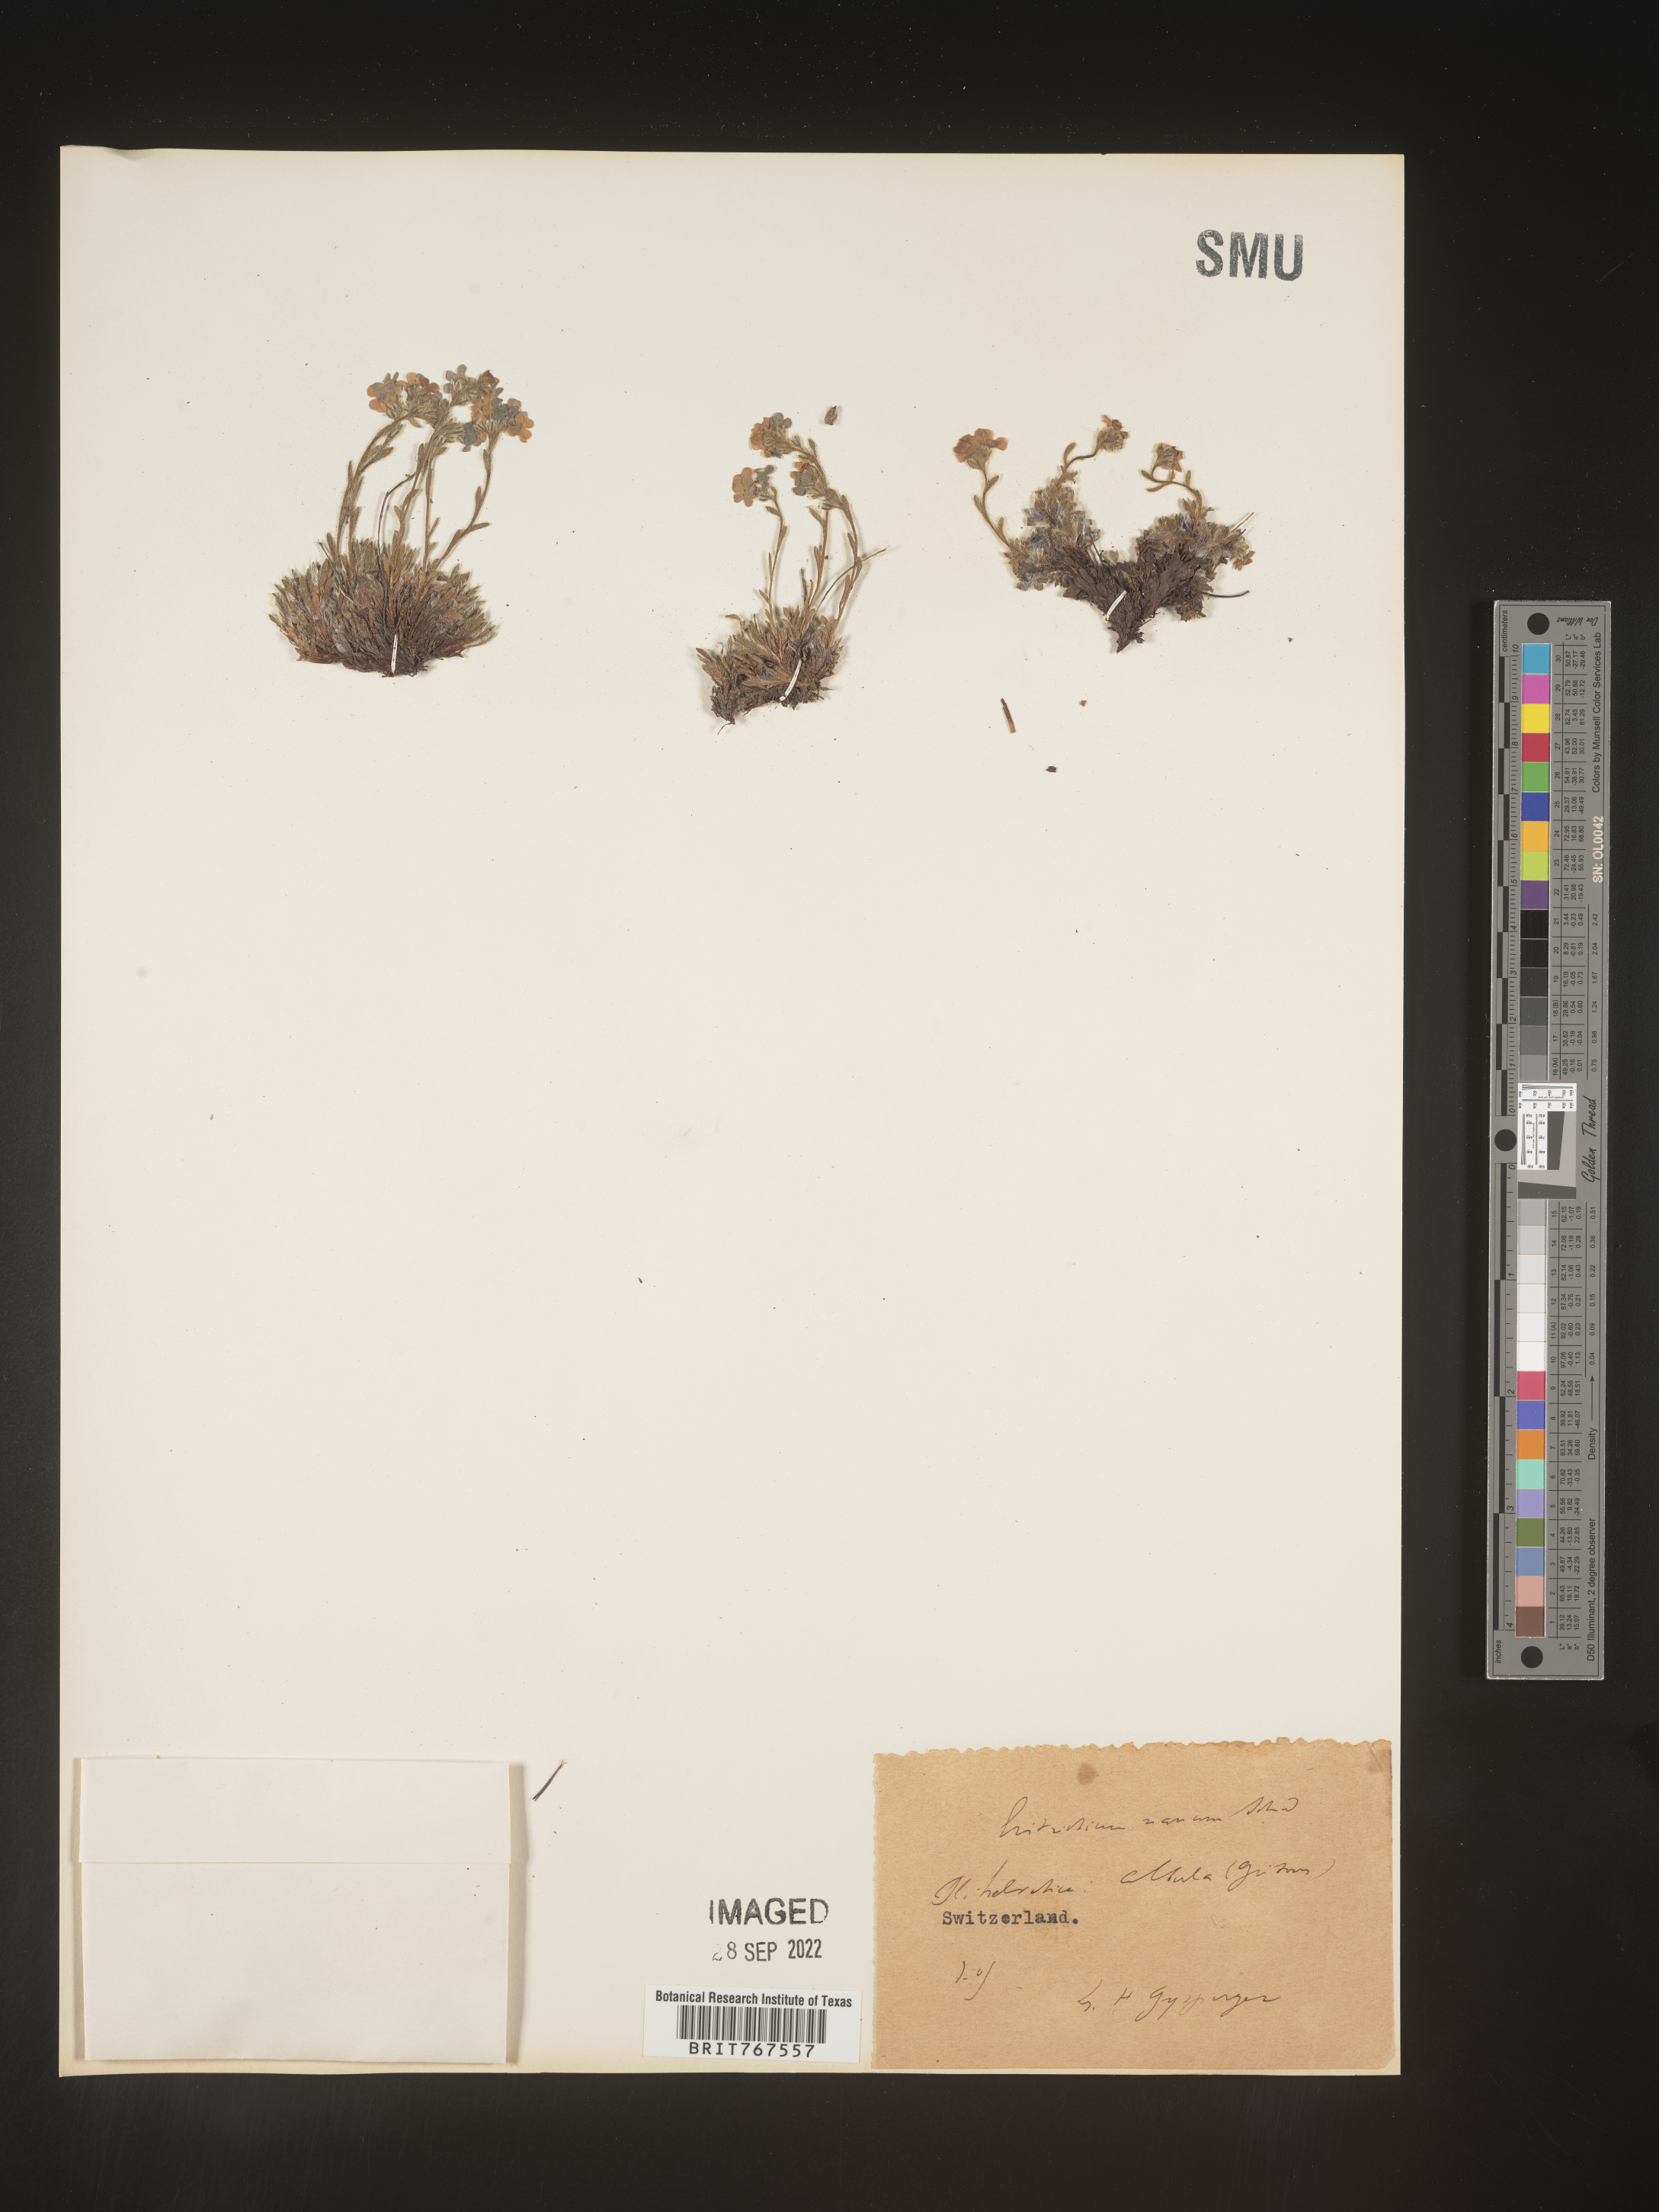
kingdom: Plantae
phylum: Tracheophyta
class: Magnoliopsida
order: Boraginales
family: Boraginaceae
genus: Eritrichium
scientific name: Eritrichium
